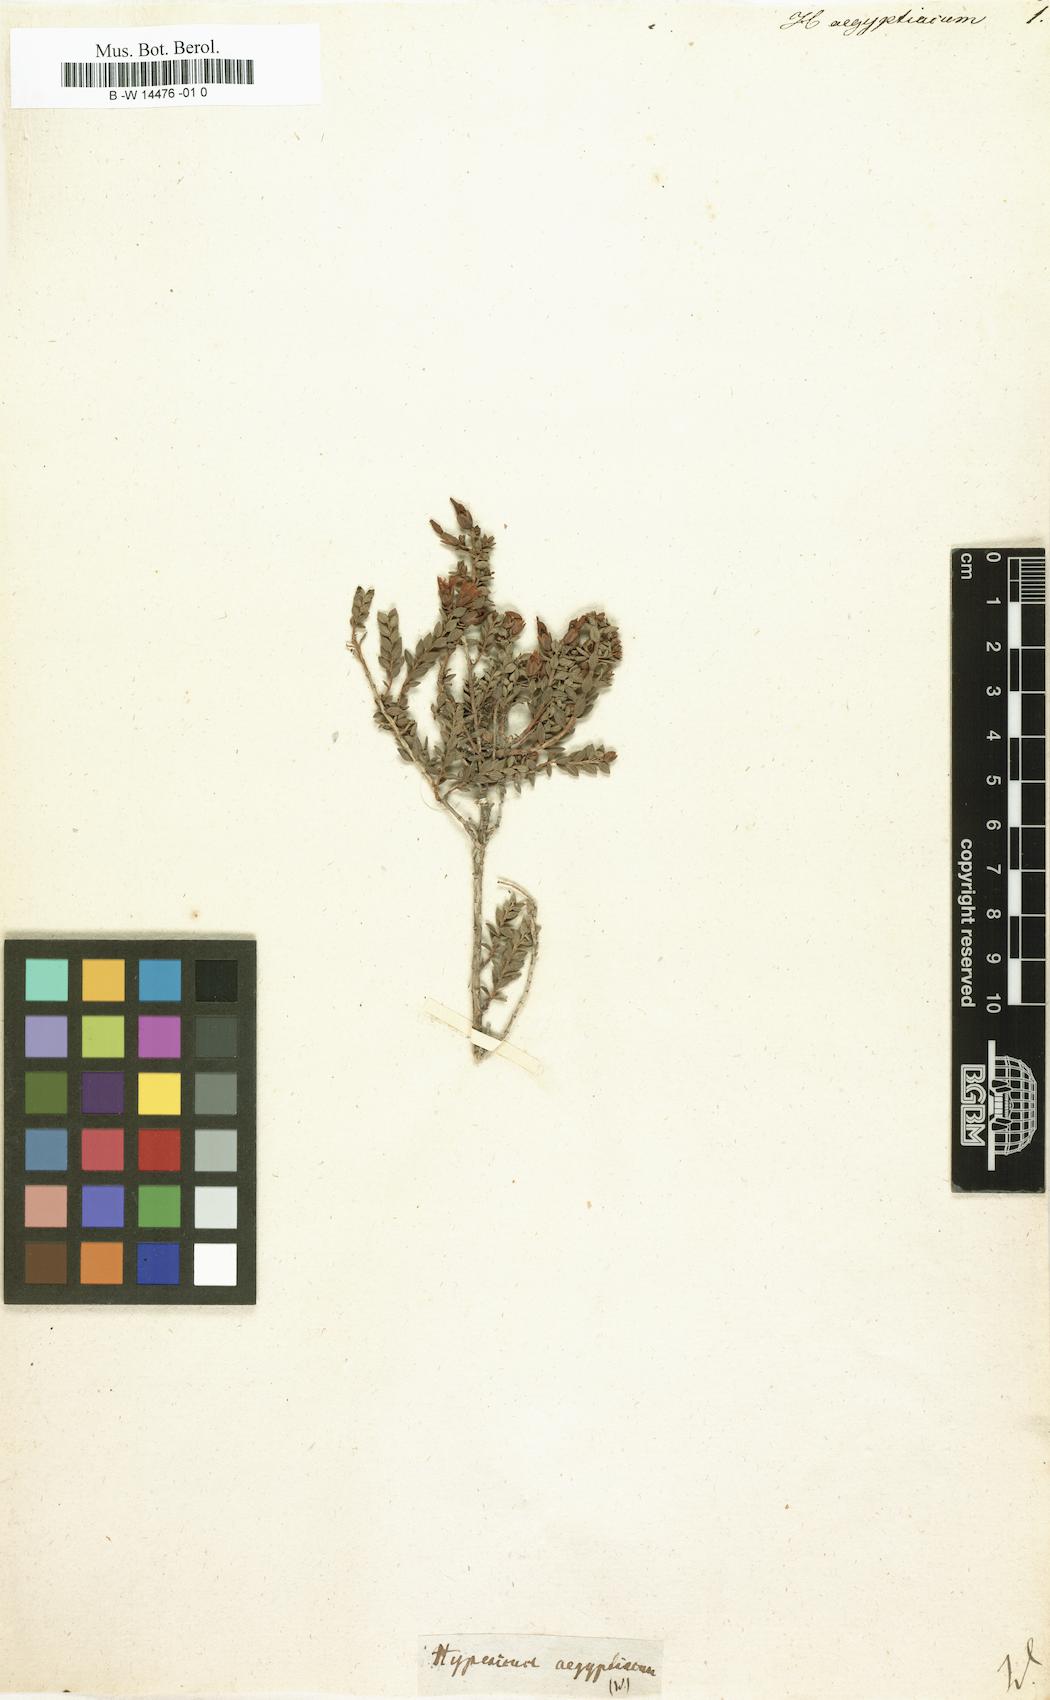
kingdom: Plantae
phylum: Tracheophyta
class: Magnoliopsida
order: Malpighiales
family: Hypericaceae
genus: Hypericum
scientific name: Hypericum aegypticum
